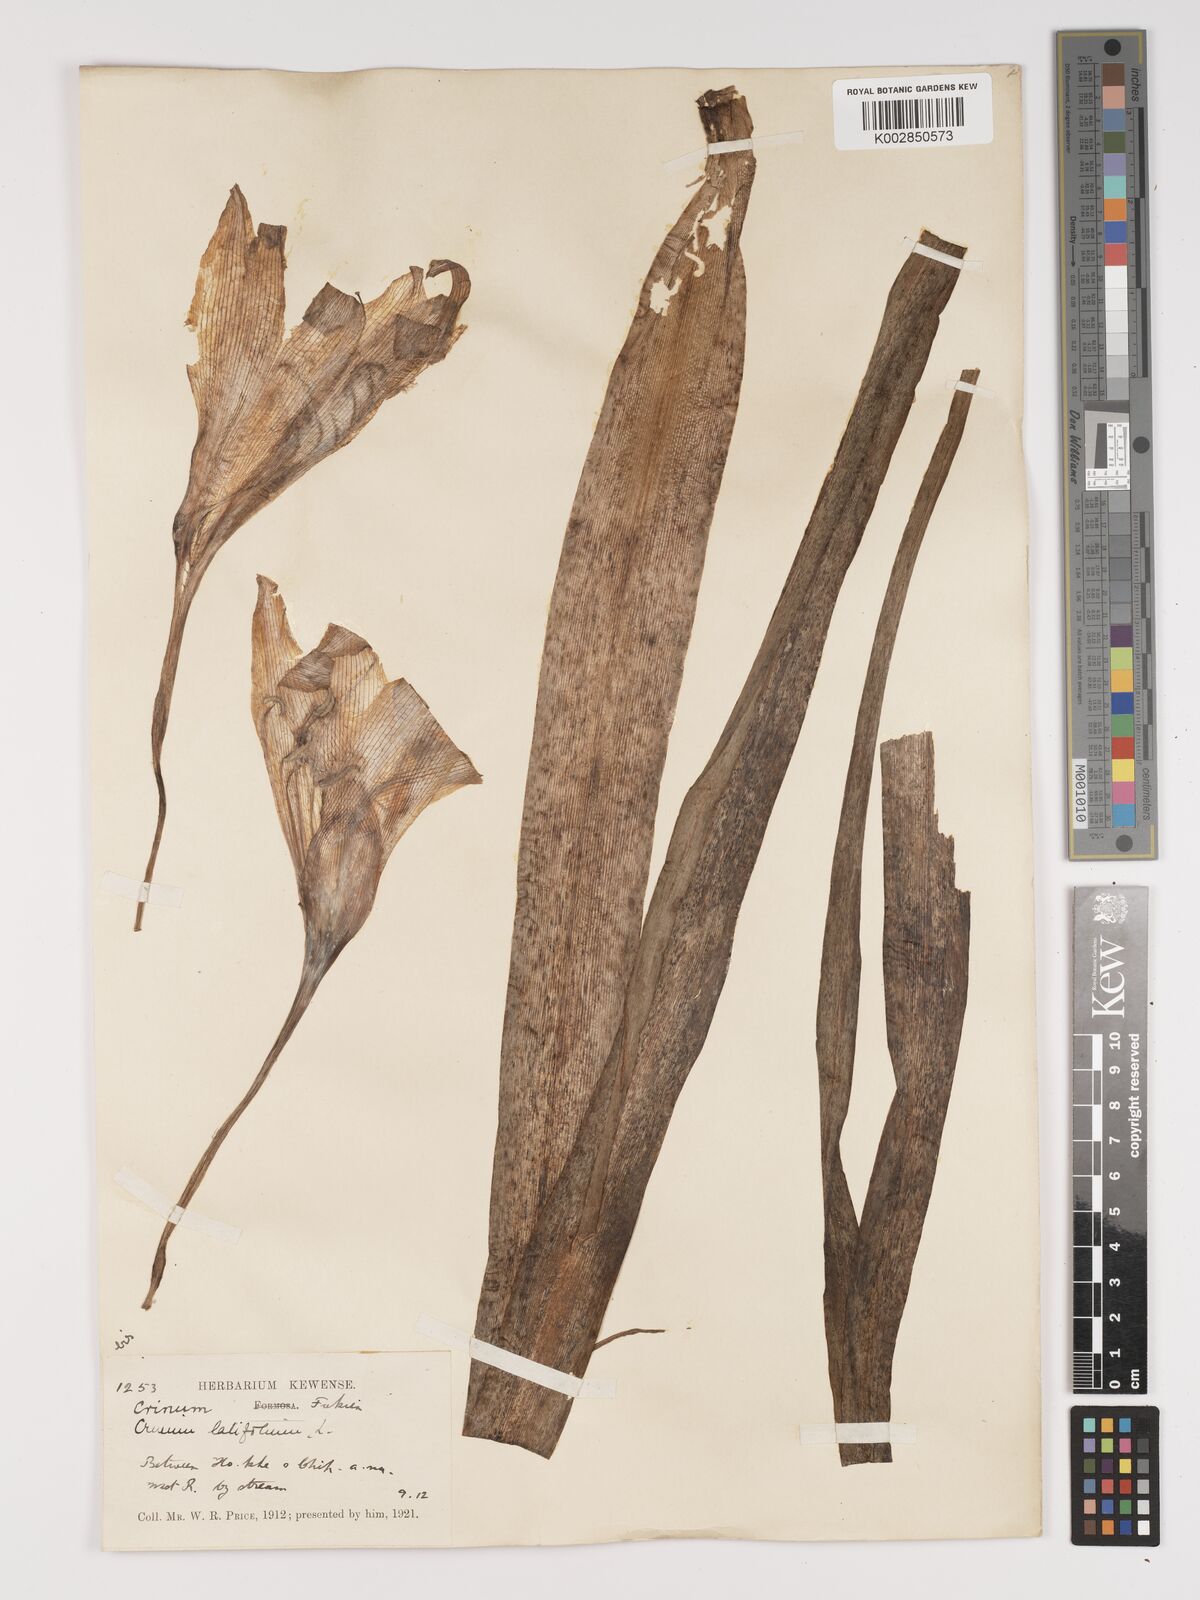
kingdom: Plantae
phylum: Tracheophyta
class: Liliopsida
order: Asparagales
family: Amaryllidaceae
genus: Crinum
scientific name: Crinum latifolium
